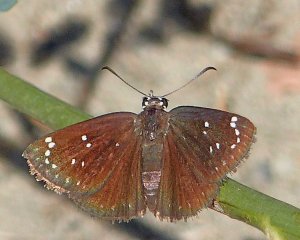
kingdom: Animalia
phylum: Arthropoda
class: Insecta
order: Lepidoptera
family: Hesperiidae
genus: Pholisora
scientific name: Pholisora catullus
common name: Common Sootywing
